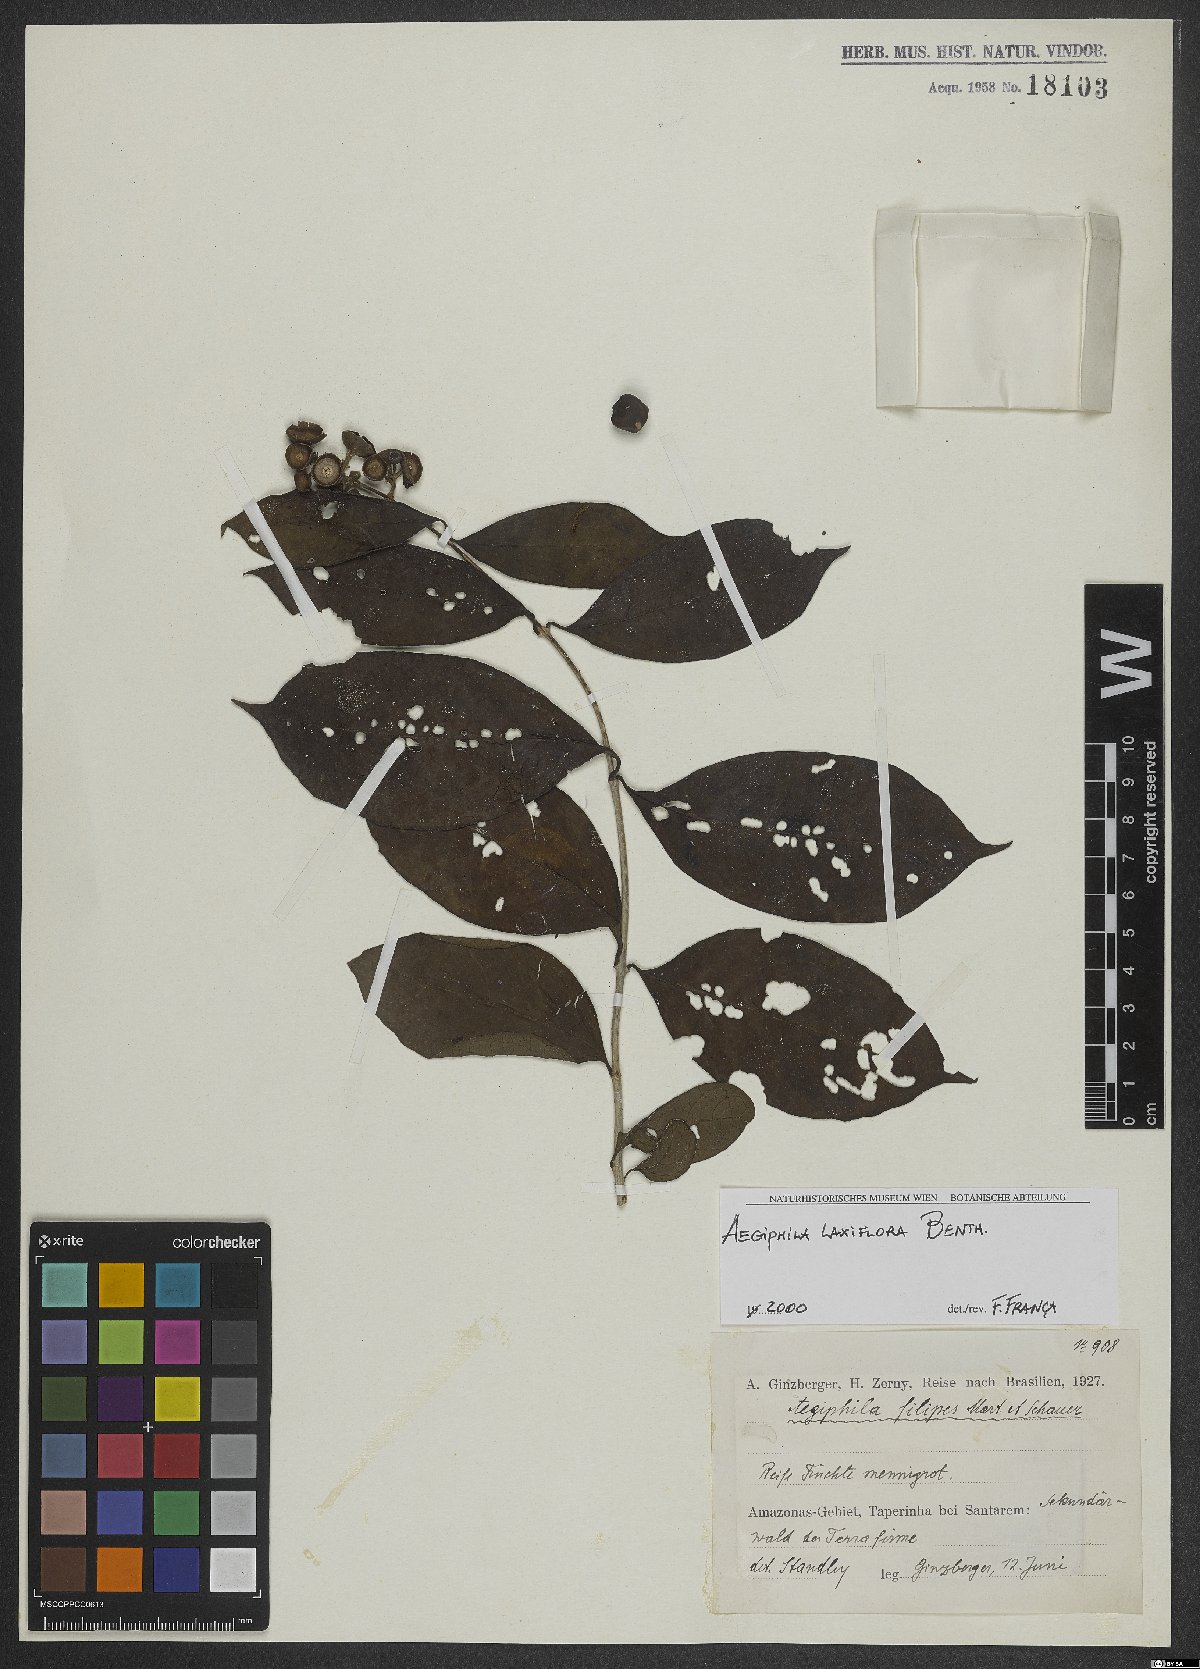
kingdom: Plantae
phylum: Tracheophyta
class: Magnoliopsida
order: Lamiales
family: Lamiaceae
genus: Aegiphila
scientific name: Aegiphila laxiflora
